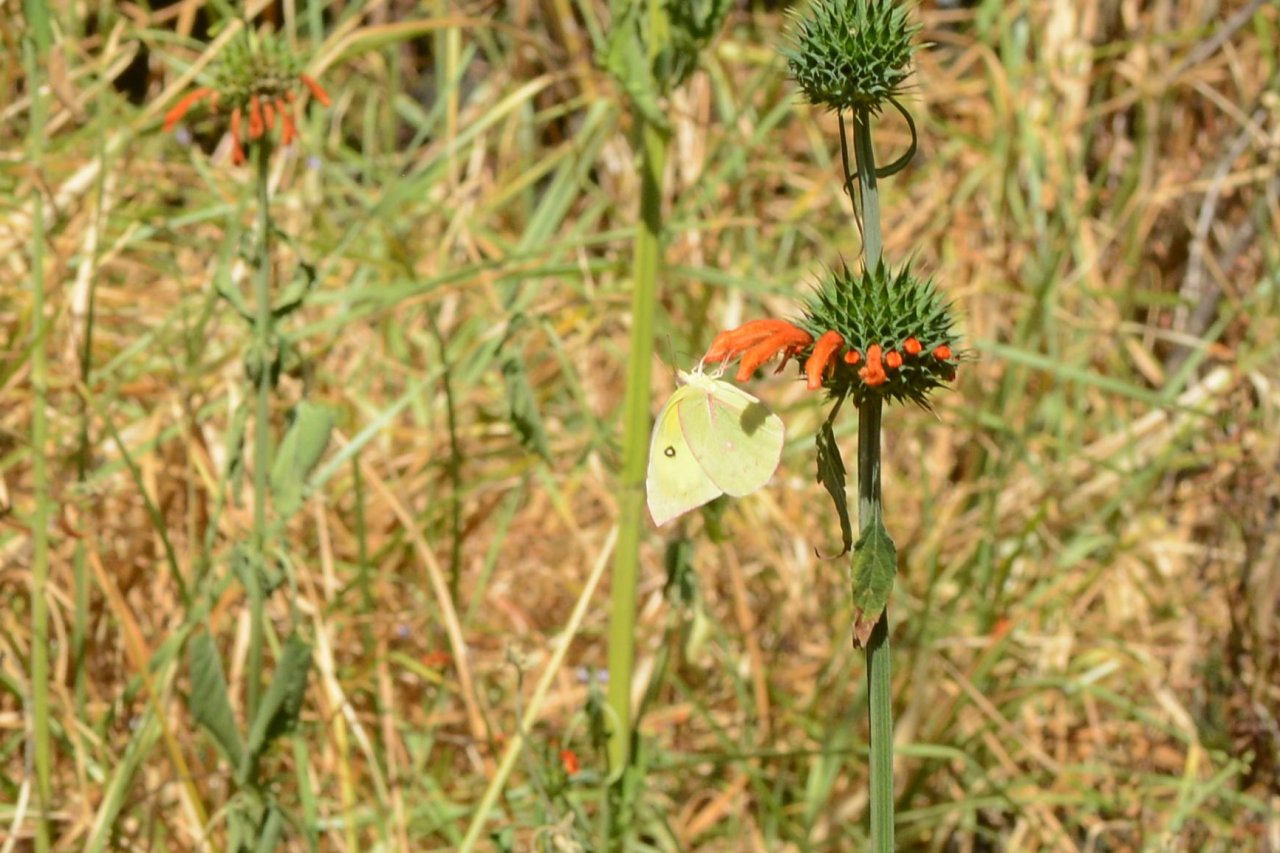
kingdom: Animalia
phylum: Arthropoda
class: Insecta
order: Lepidoptera
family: Pieridae
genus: Zerene
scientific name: Zerene cesonia
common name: Southern Dogface
